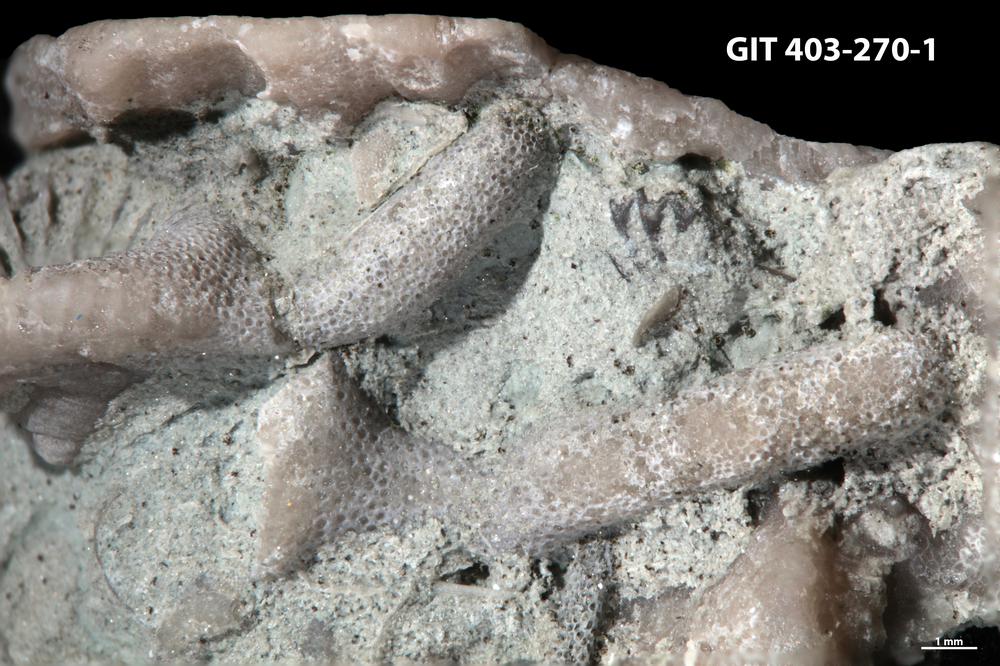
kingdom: Animalia
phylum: Bryozoa
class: Stenolaemata
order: Cystoporida
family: Fistuliporidae
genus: Fistulipora
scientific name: Fistulipora przhidolensis
